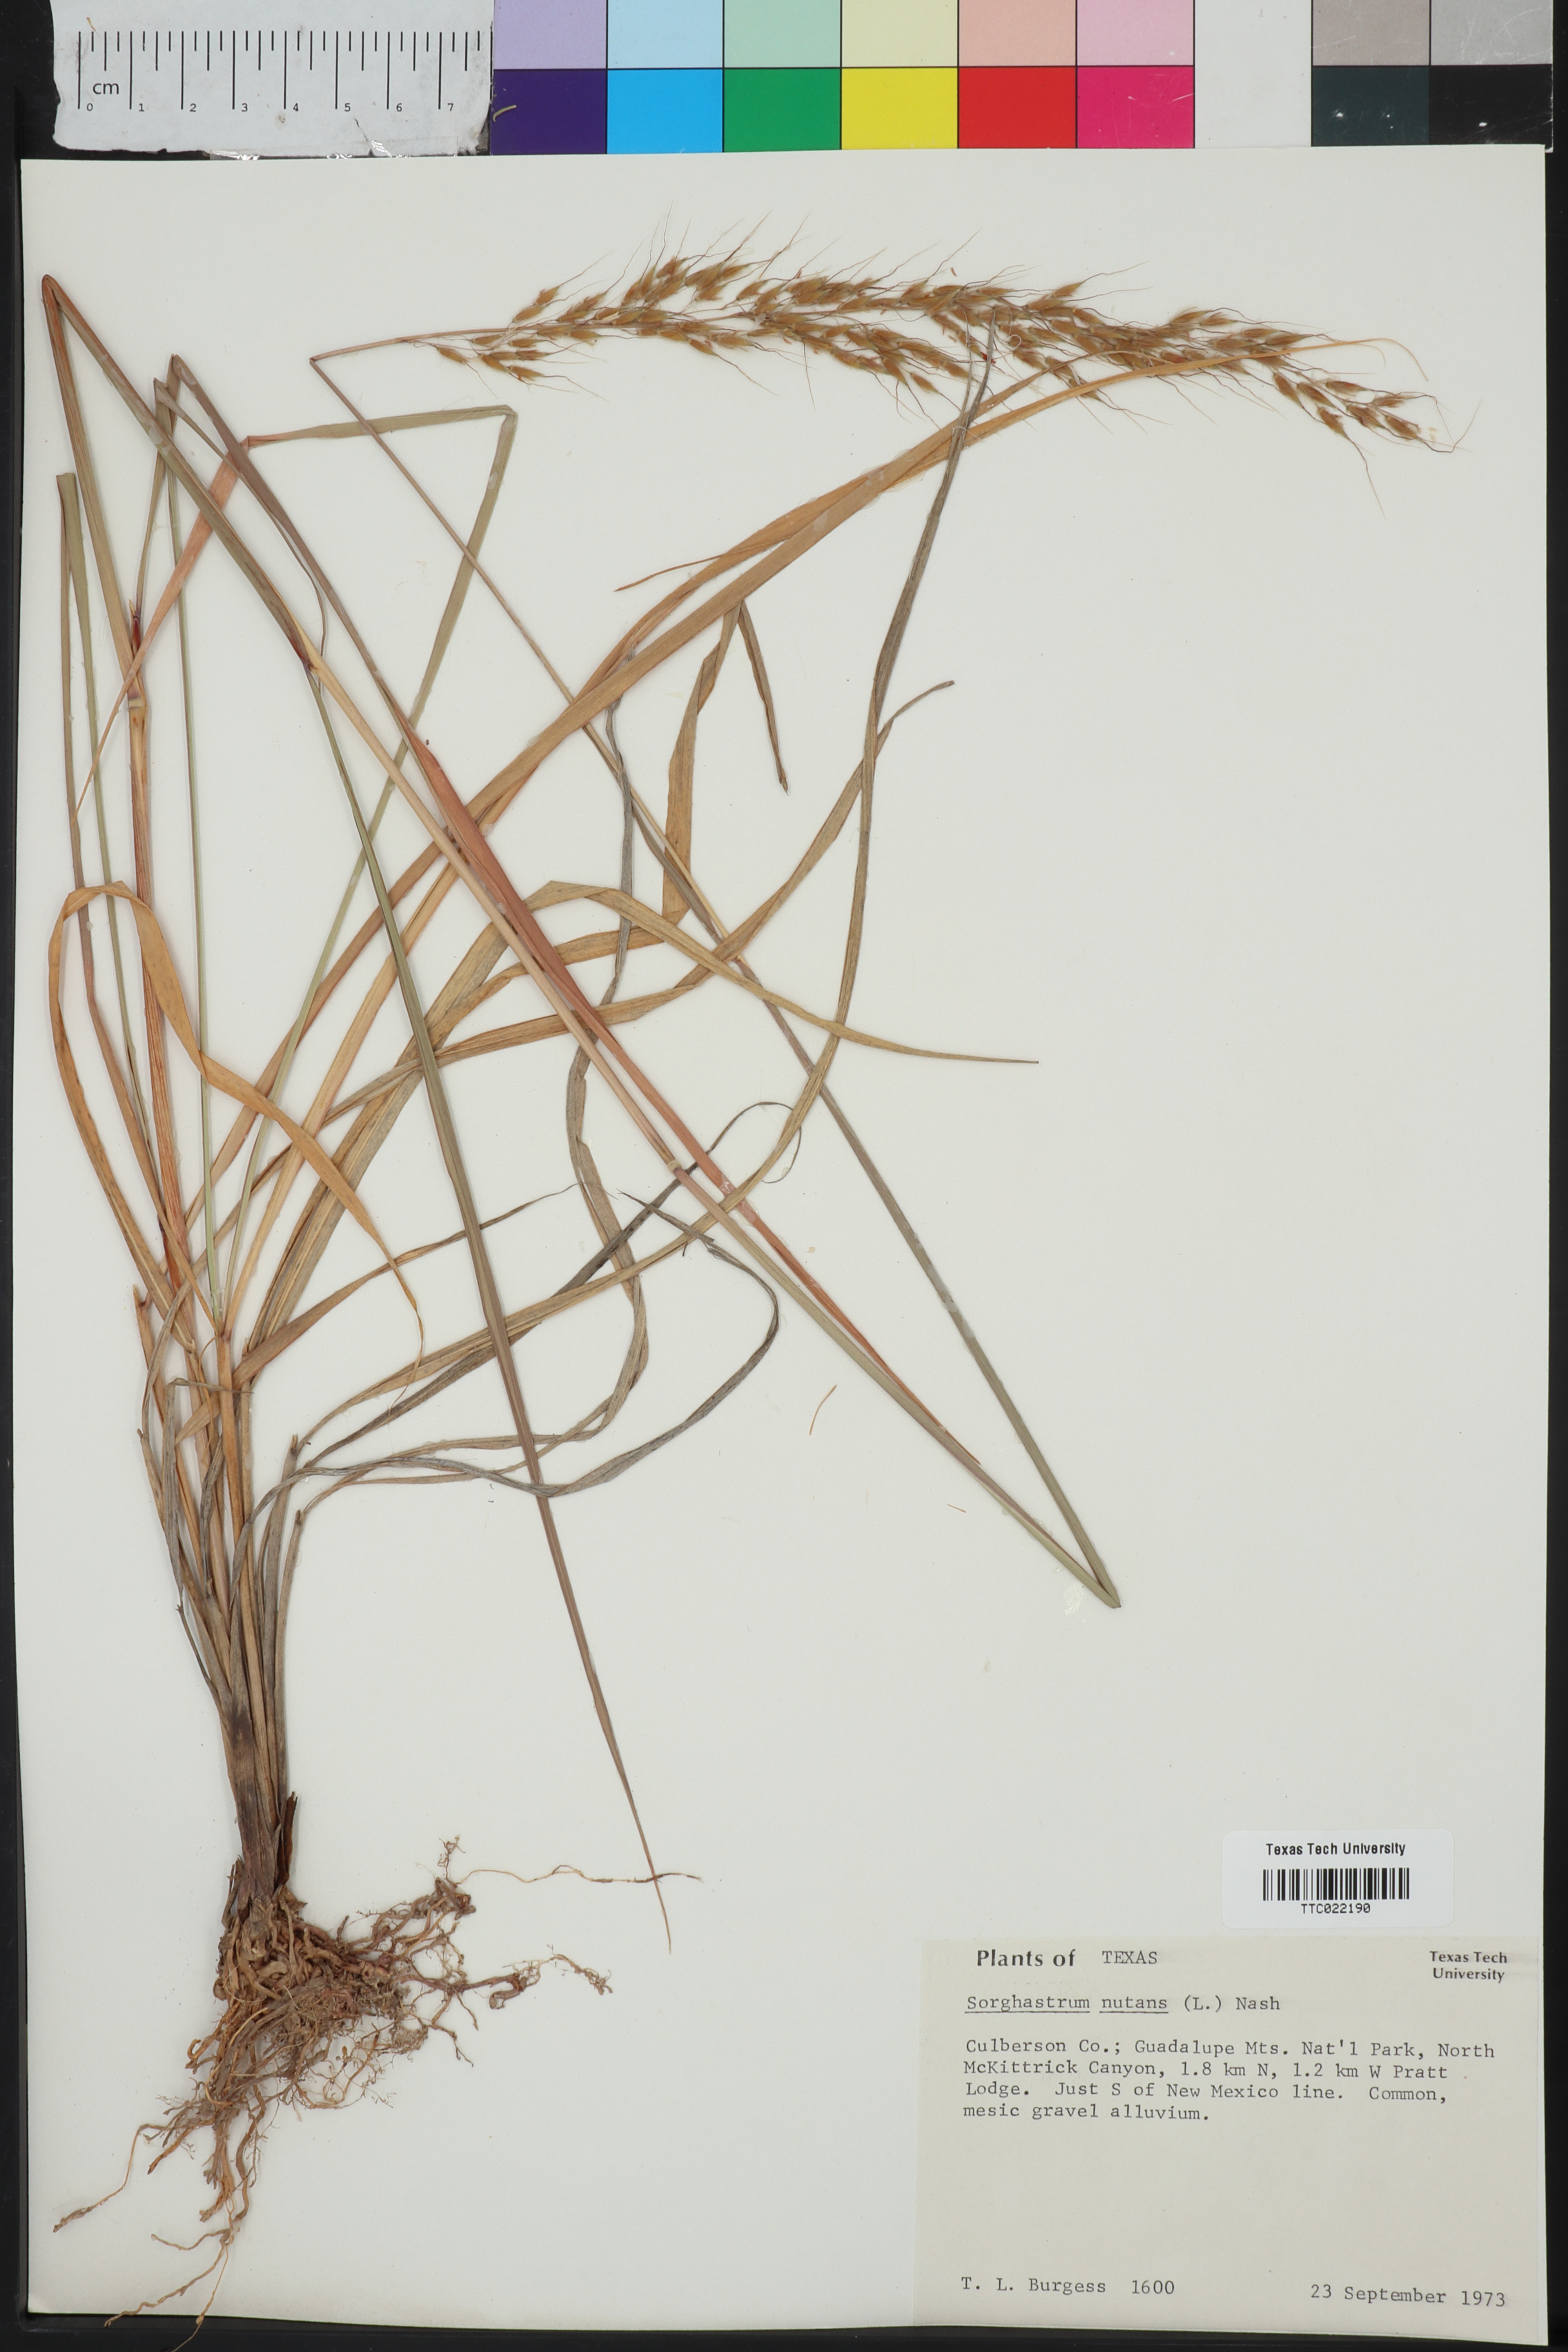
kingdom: Plantae
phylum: Tracheophyta
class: Liliopsida
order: Poales
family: Poaceae
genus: Sorghastrum
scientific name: Sorghastrum nutans
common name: Indian grass
